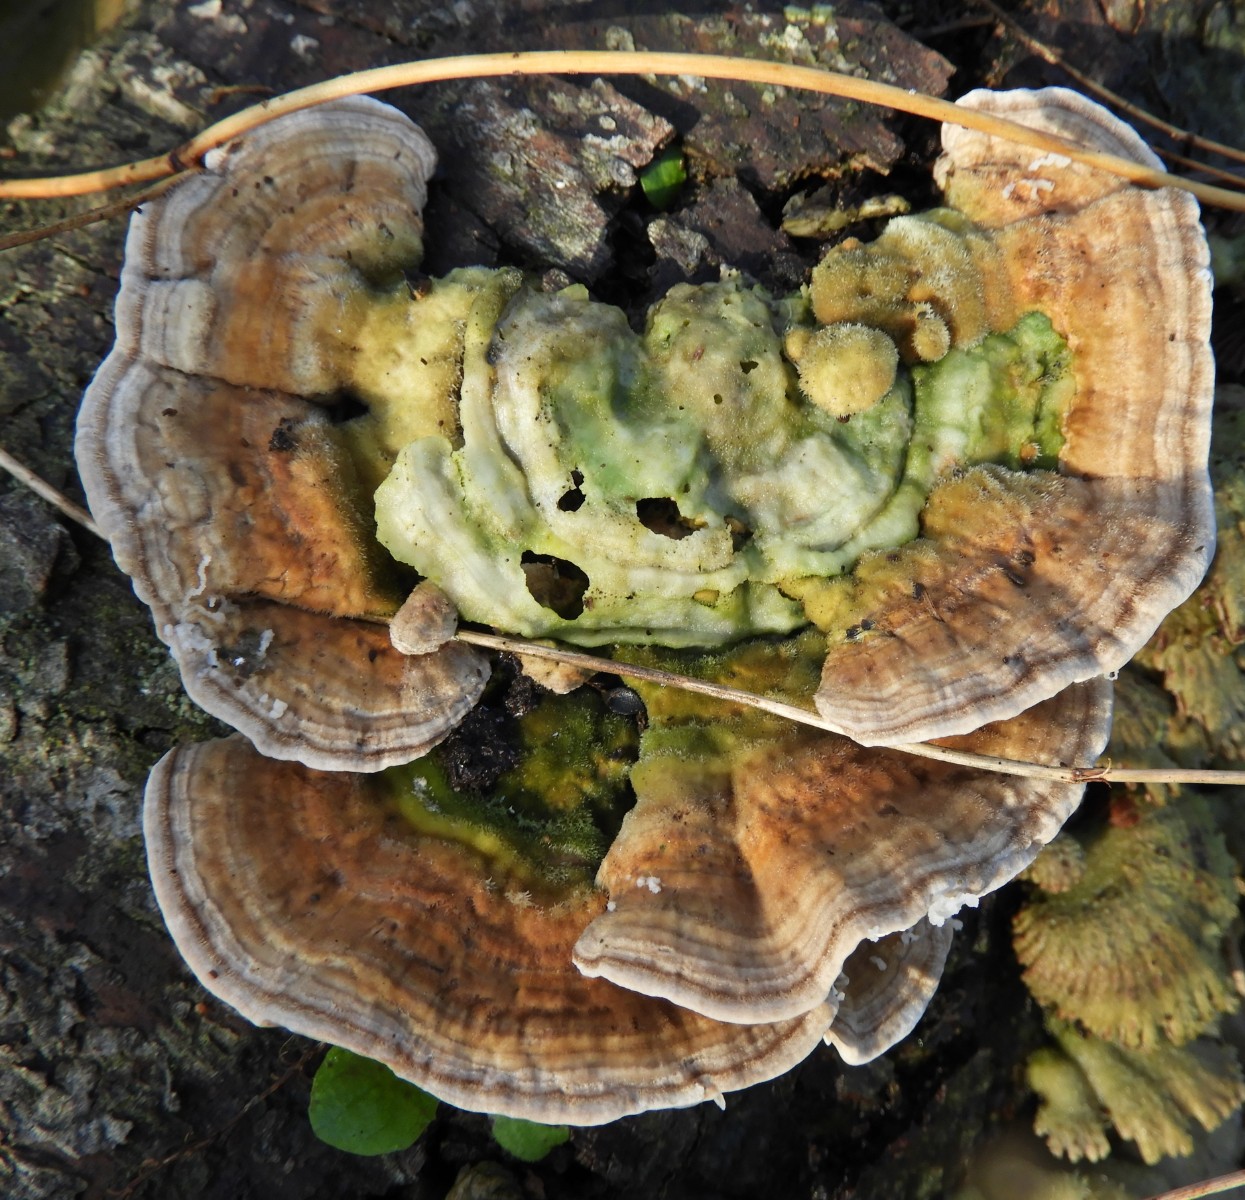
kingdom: Fungi
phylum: Basidiomycota
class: Agaricomycetes
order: Polyporales
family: Polyporaceae
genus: Lenzites
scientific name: Lenzites betulinus
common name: birke-læderporesvamp
